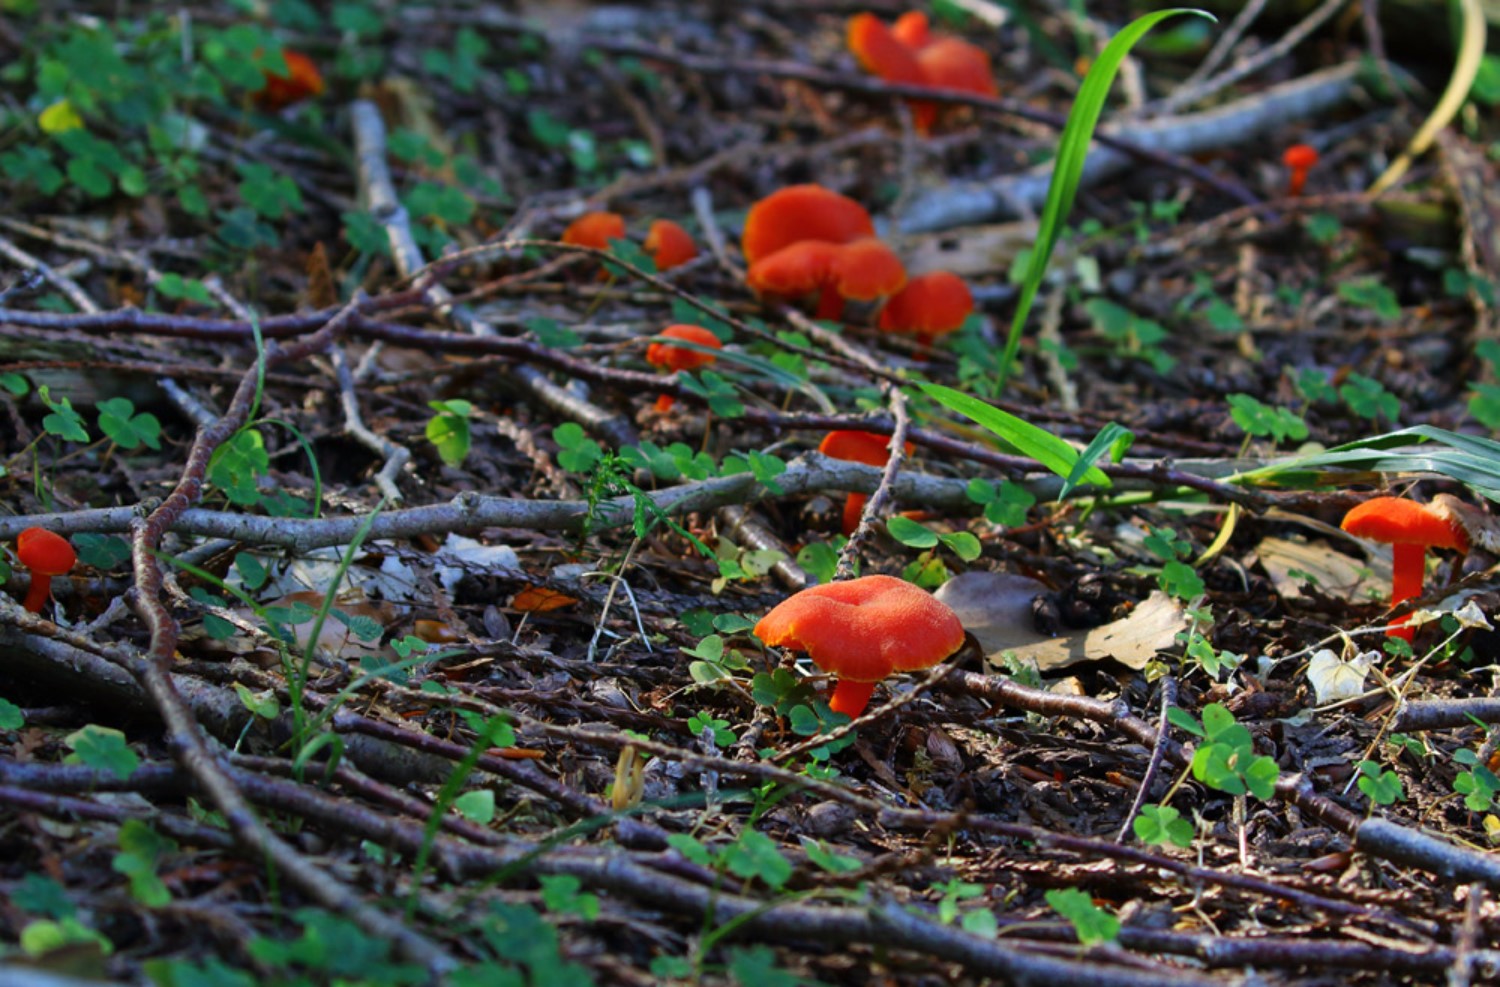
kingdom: Fungi
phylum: Basidiomycota
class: Agaricomycetes
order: Agaricales
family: Hygrophoraceae
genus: Hygrocybe
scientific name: Hygrocybe miniata
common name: mønje-vokshat
